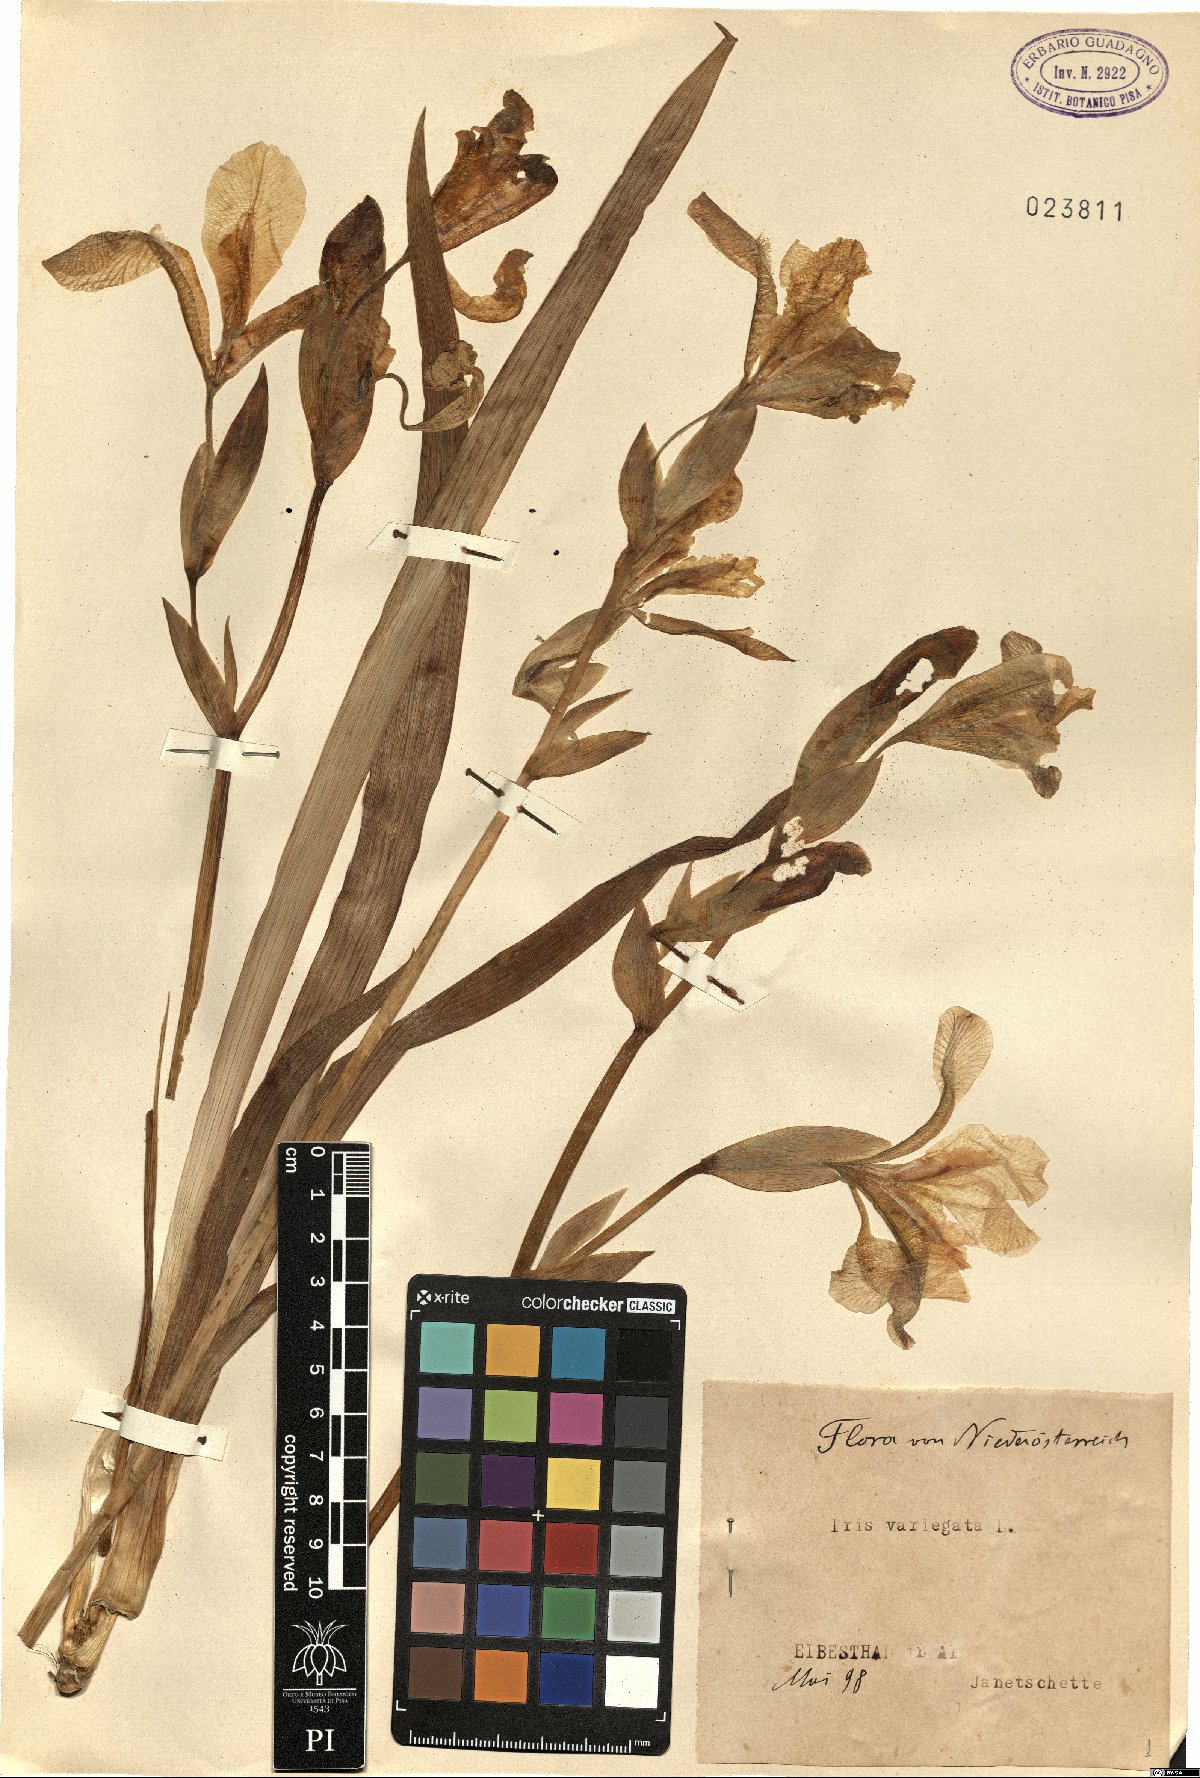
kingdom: Plantae
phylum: Tracheophyta
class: Liliopsida
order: Asparagales
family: Iridaceae
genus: Iris
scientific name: Iris variegata
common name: Hungarian iris
